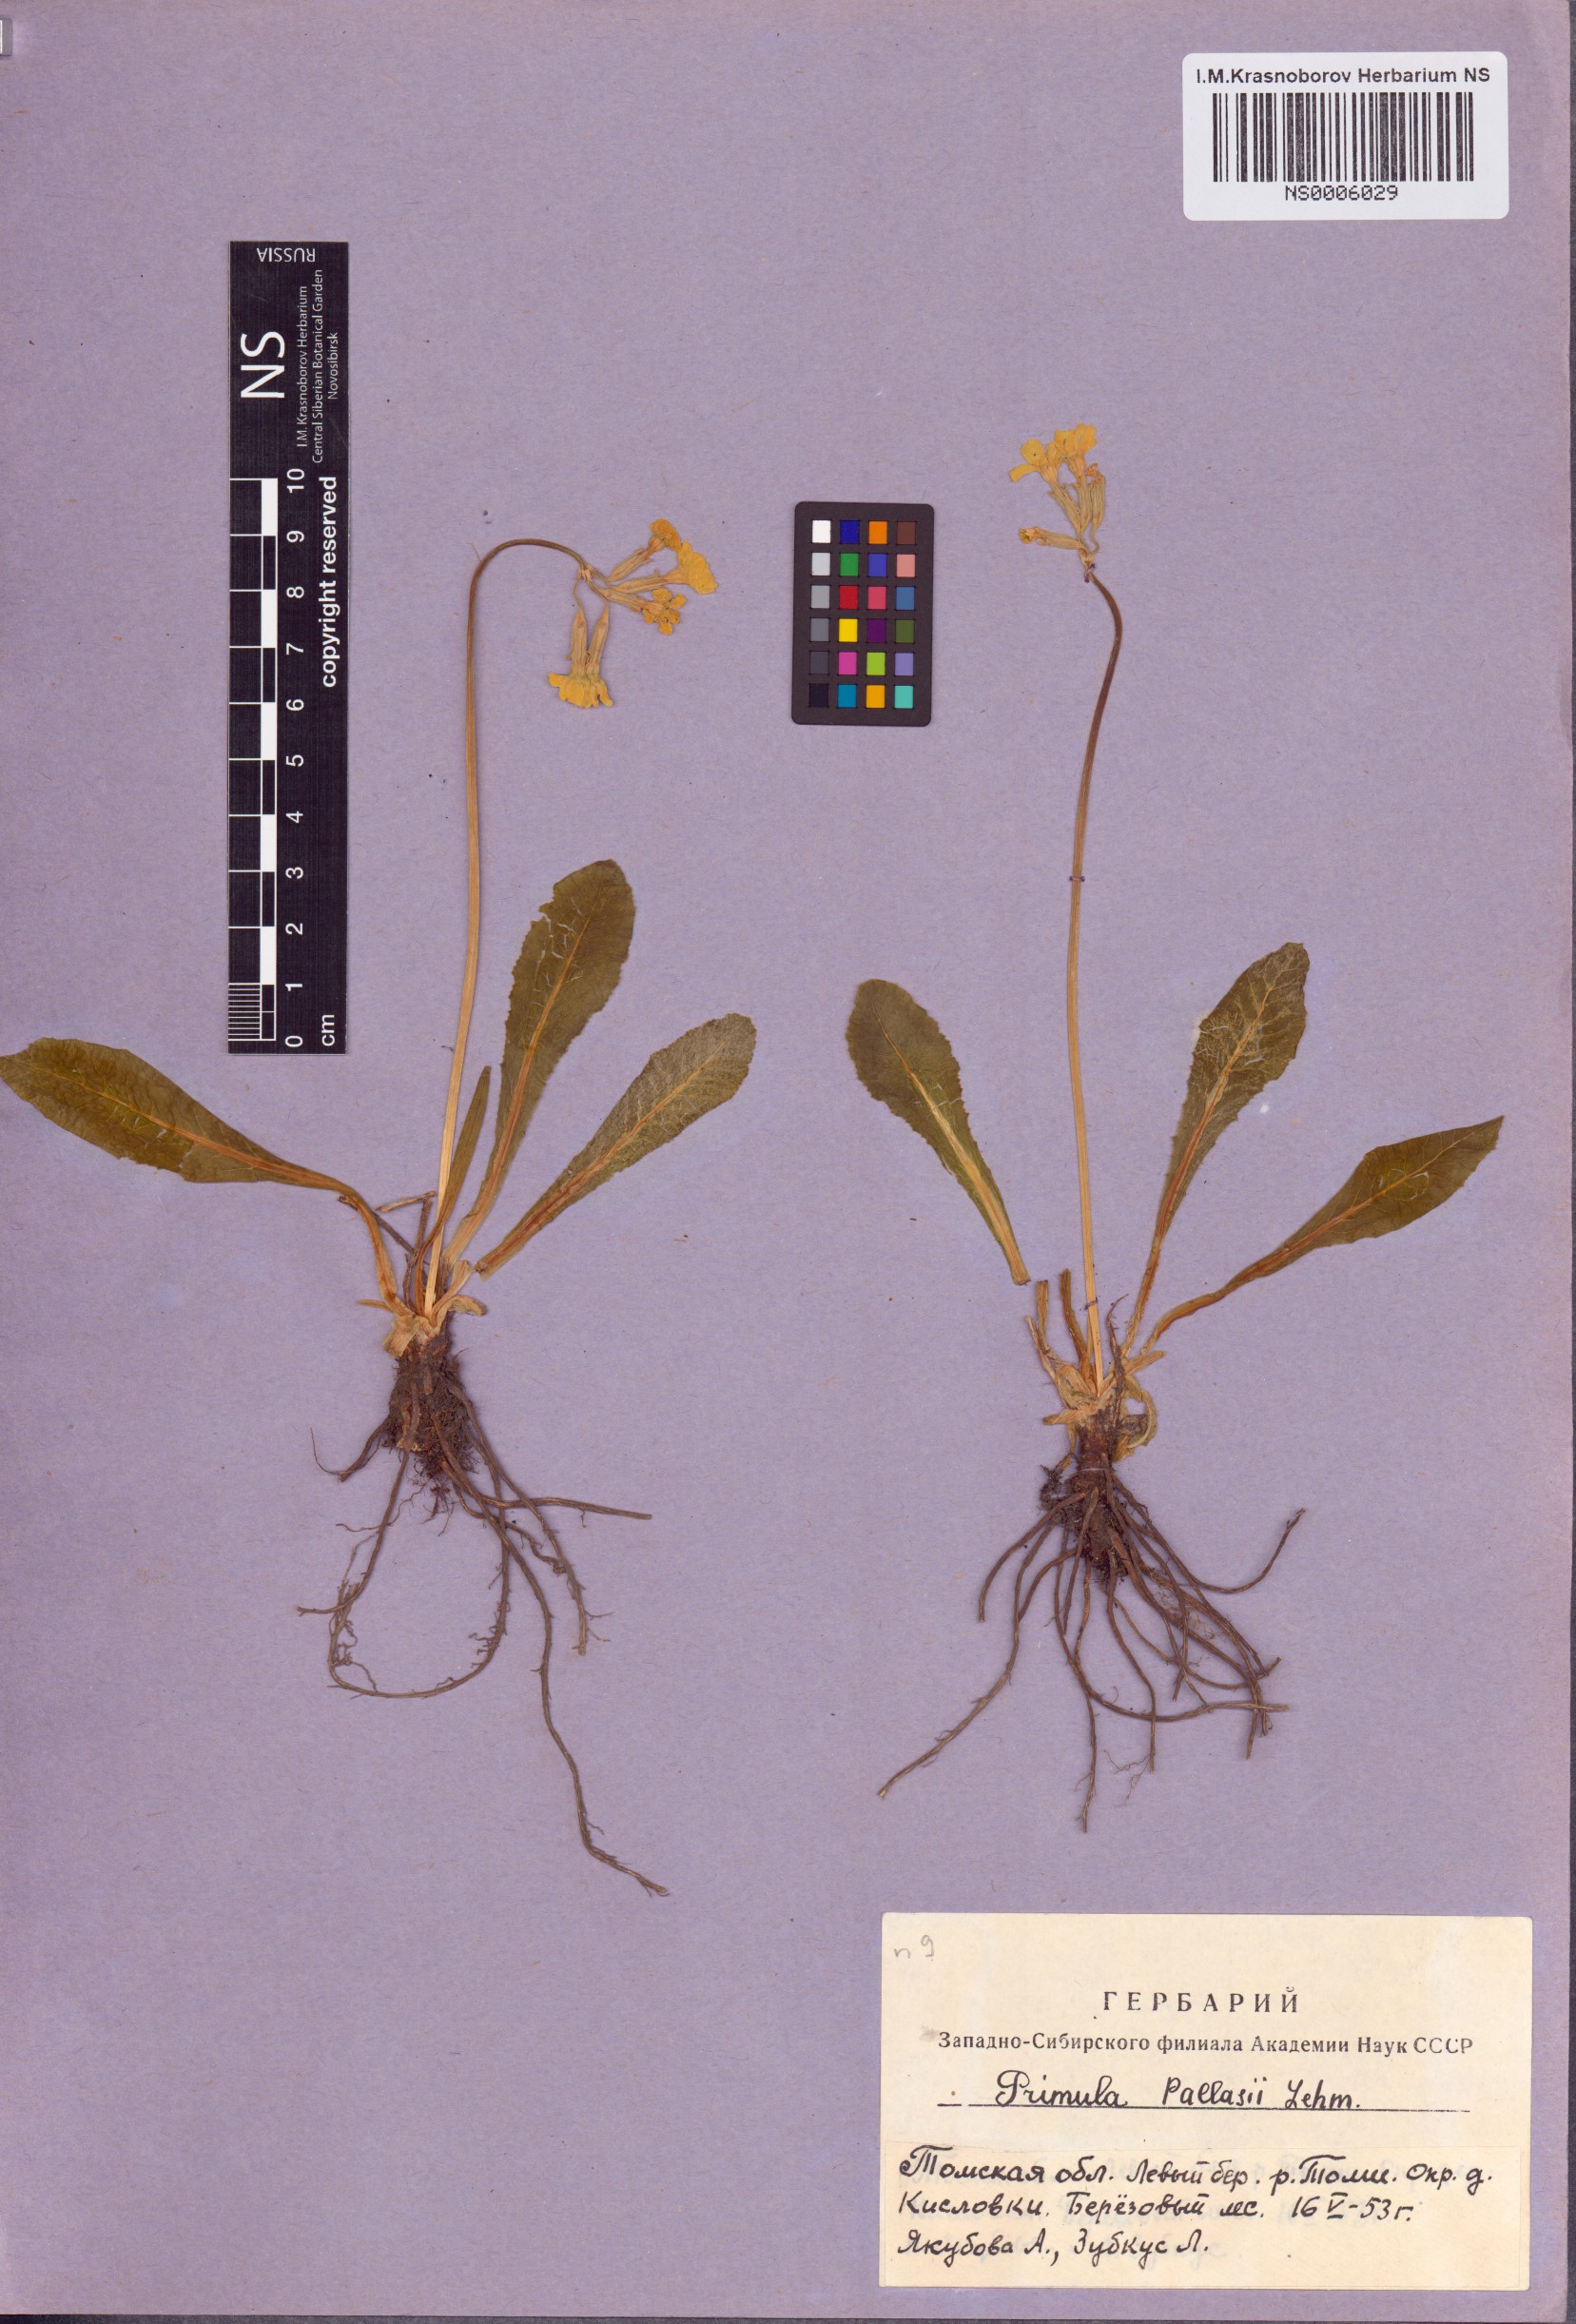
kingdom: Plantae
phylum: Tracheophyta
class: Magnoliopsida
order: Ericales
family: Primulaceae
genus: Primula
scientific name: Primula elatior
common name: Oxlip
